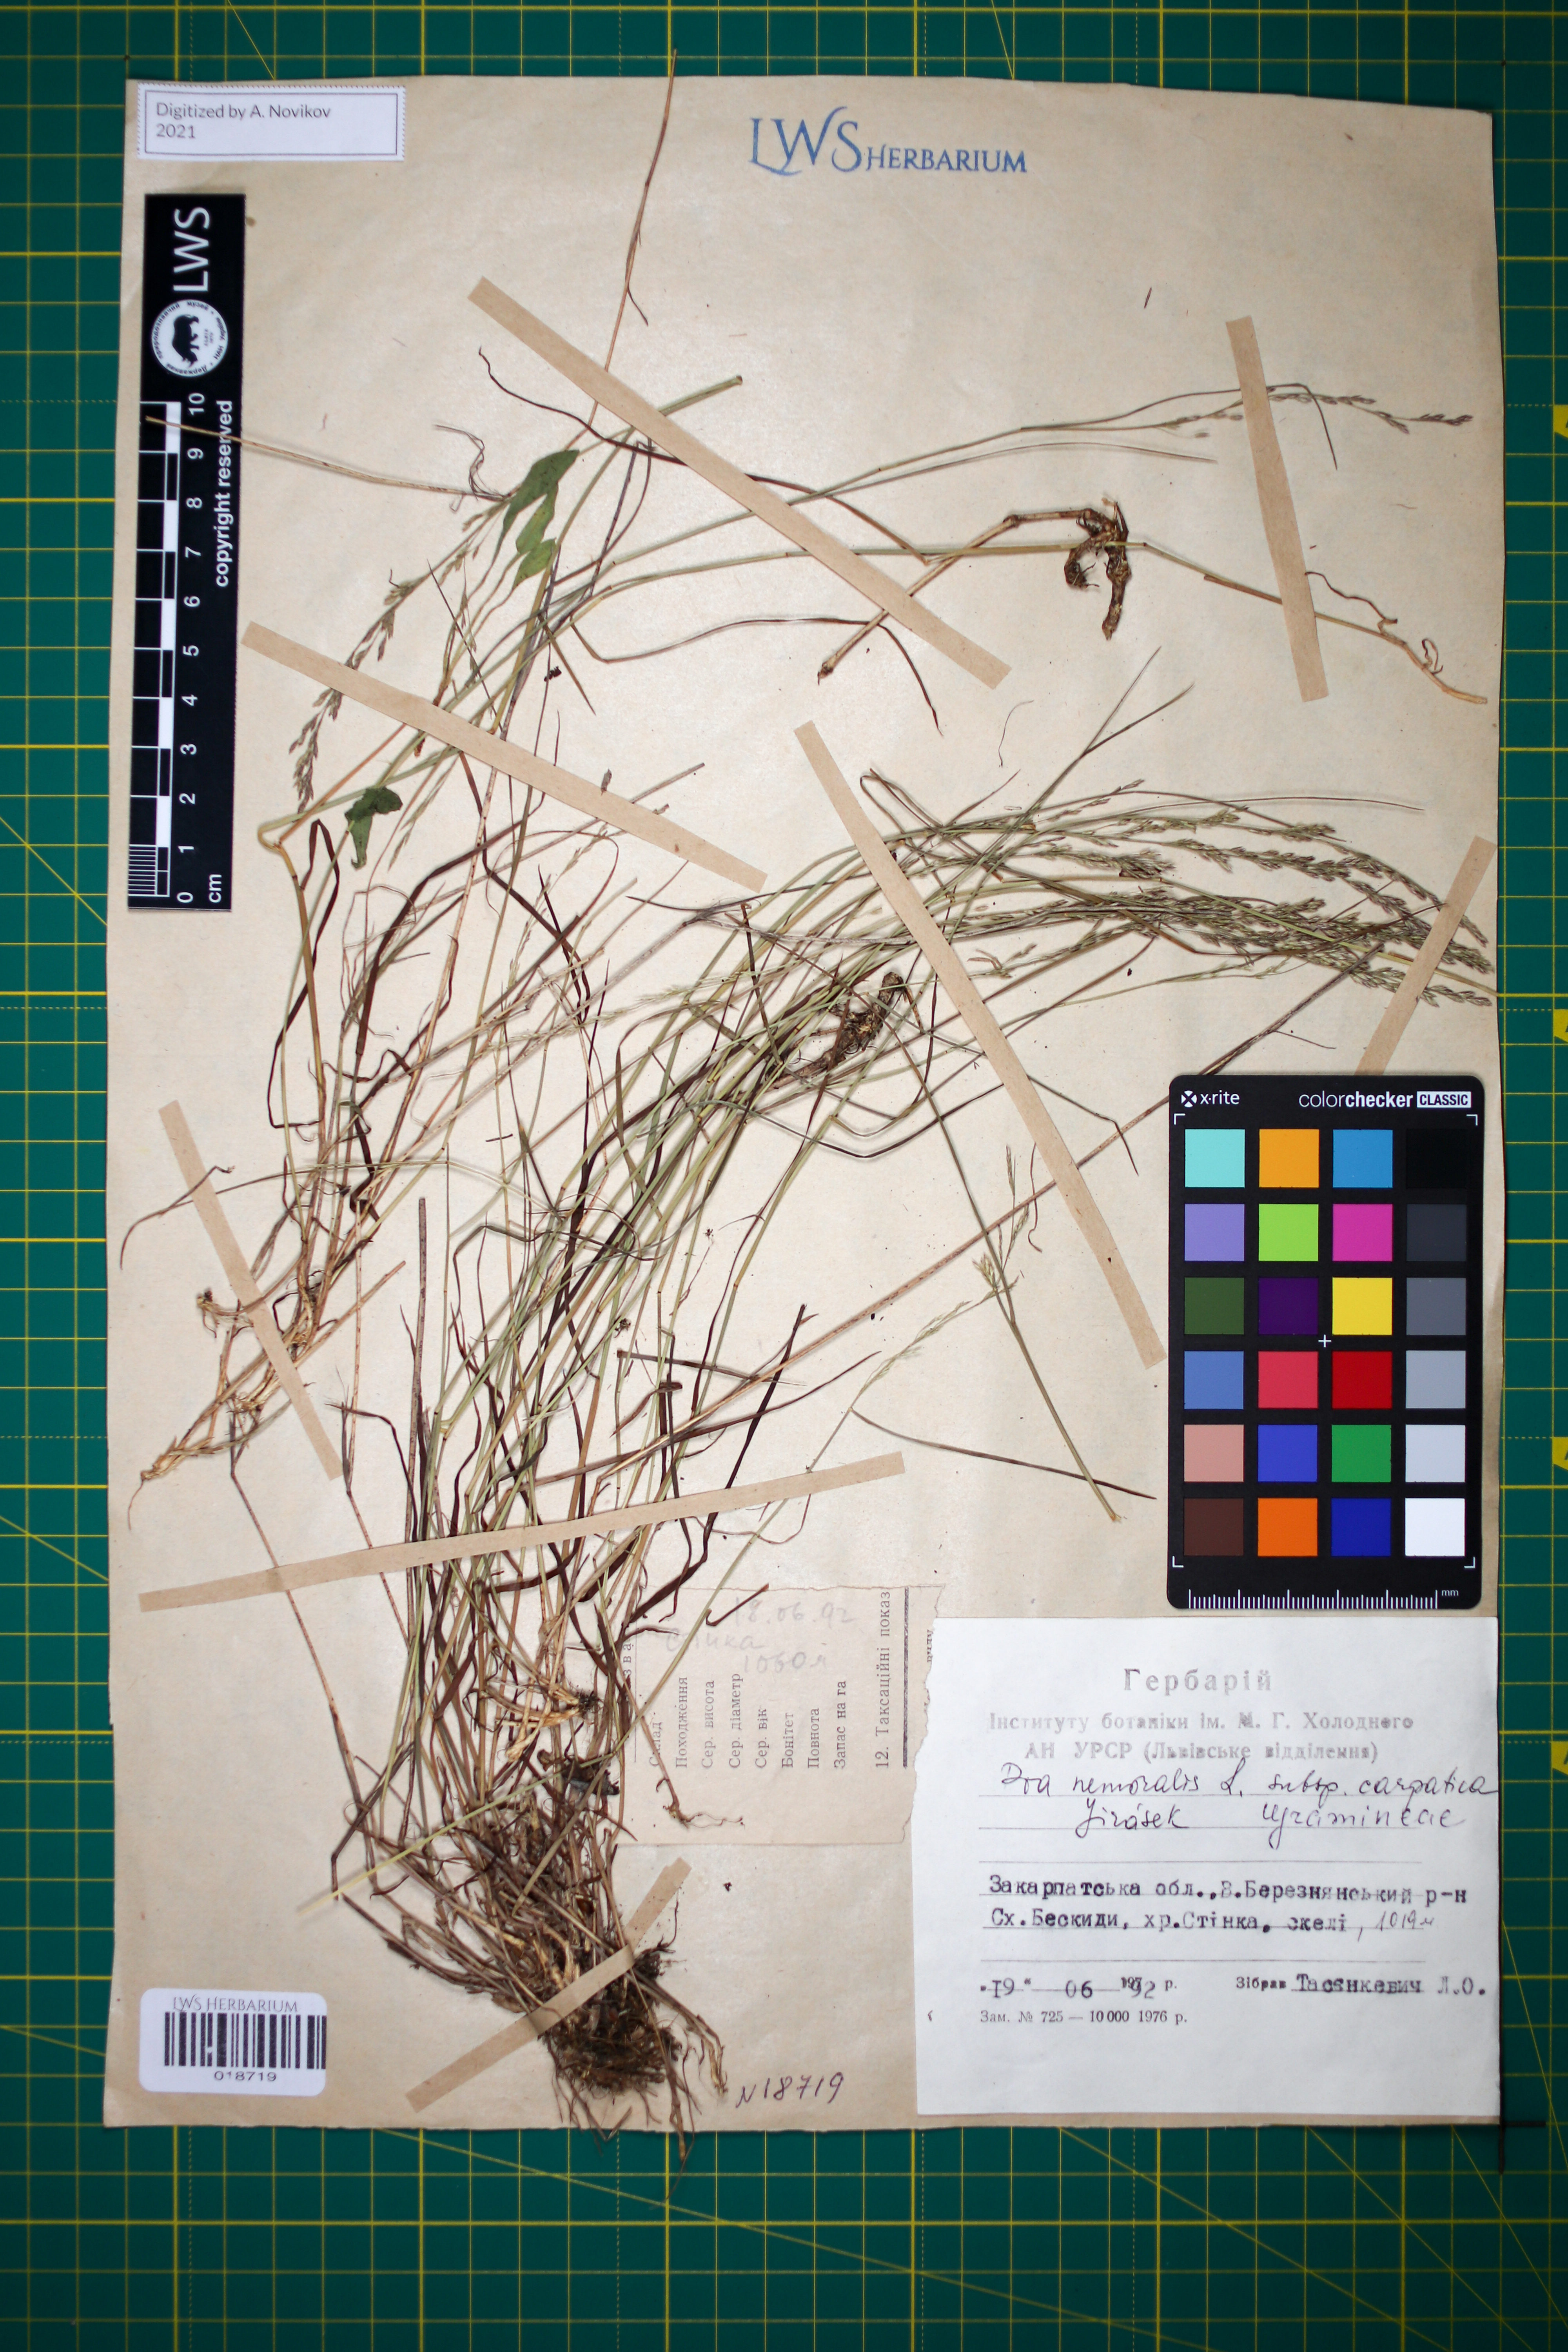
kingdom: Plantae
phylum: Tracheophyta
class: Liliopsida
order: Poales
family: Poaceae
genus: Poa
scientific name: Poa carpatica
